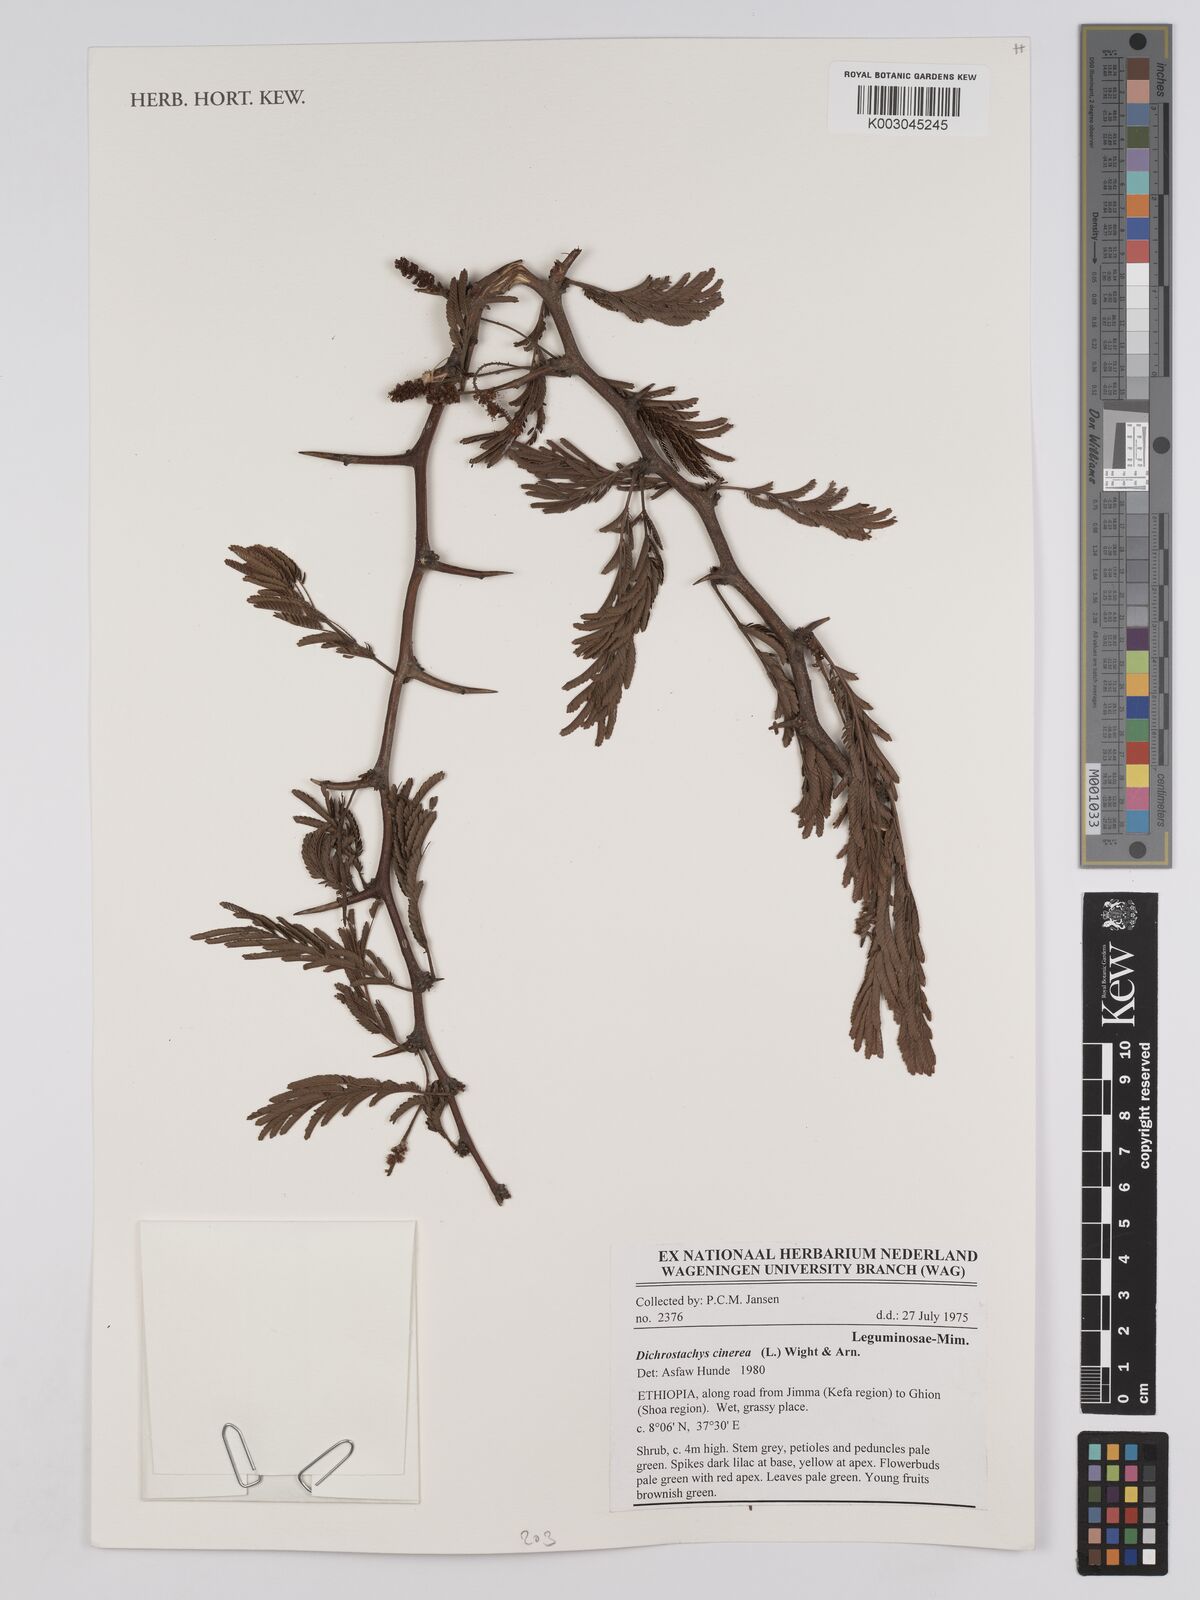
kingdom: Plantae
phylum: Tracheophyta
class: Magnoliopsida
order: Fabales
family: Fabaceae
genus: Dichrostachys
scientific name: Dichrostachys cinerea
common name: Sicklebush
